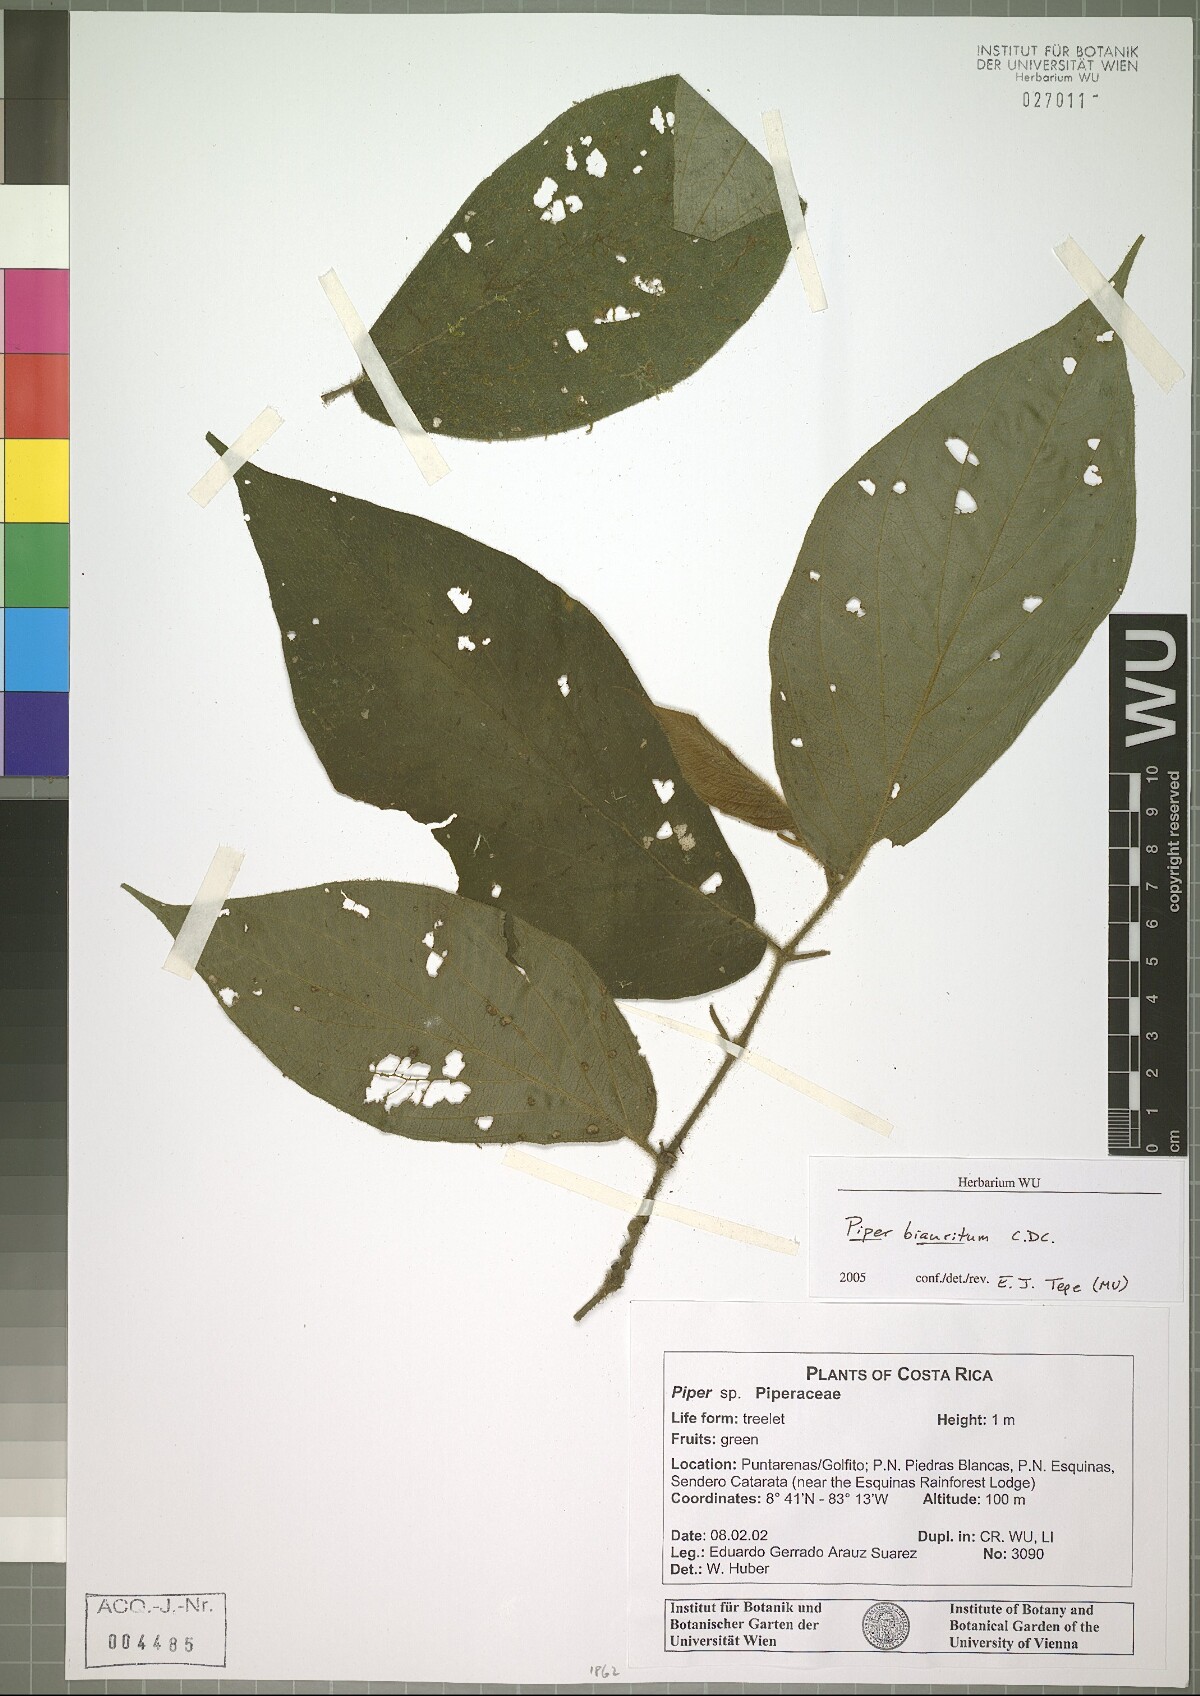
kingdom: Plantae
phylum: Tracheophyta
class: Magnoliopsida
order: Piperales
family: Piperaceae
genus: Piper
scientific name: Piper biauritum
